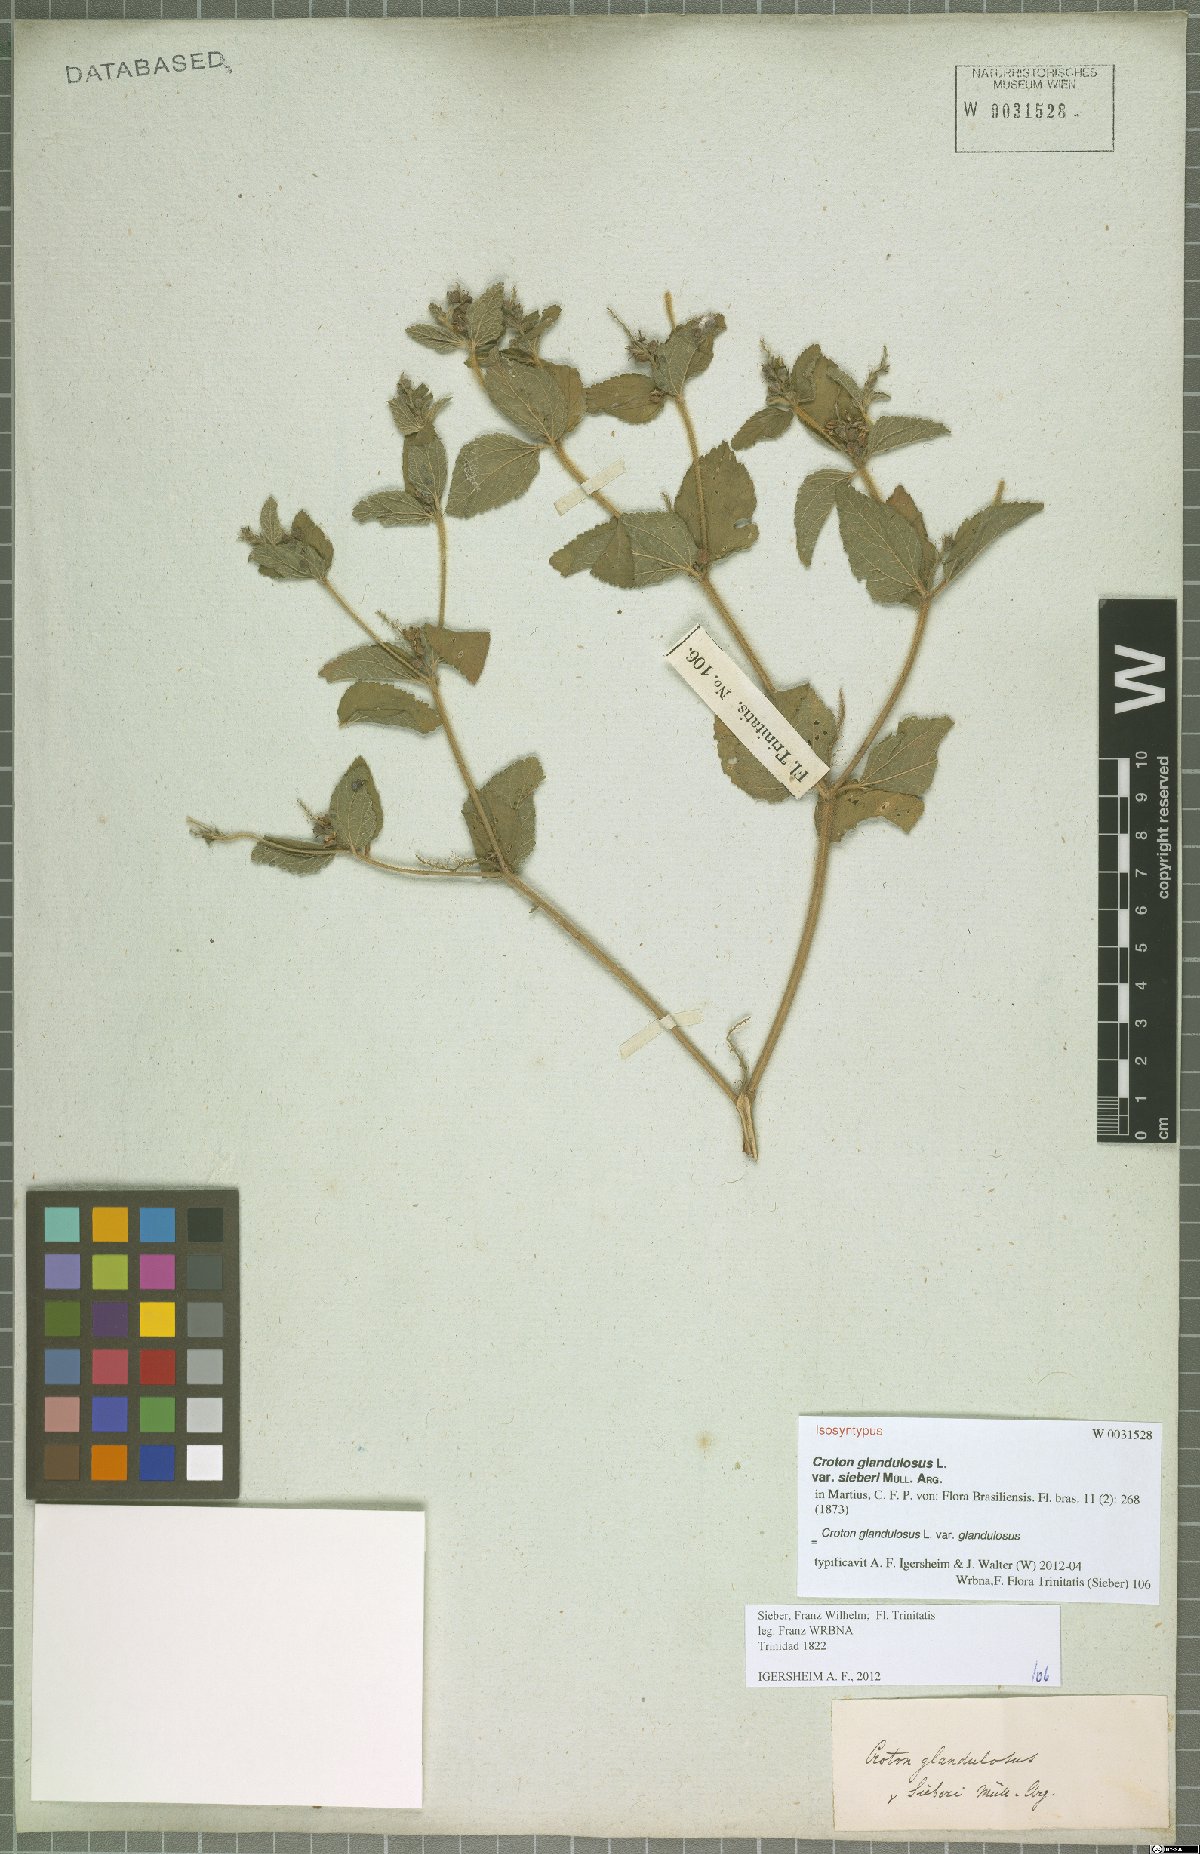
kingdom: Plantae
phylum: Tracheophyta
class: Magnoliopsida
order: Malpighiales
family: Euphorbiaceae
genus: Croton
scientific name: Croton glandulosus
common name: Tropic croton
